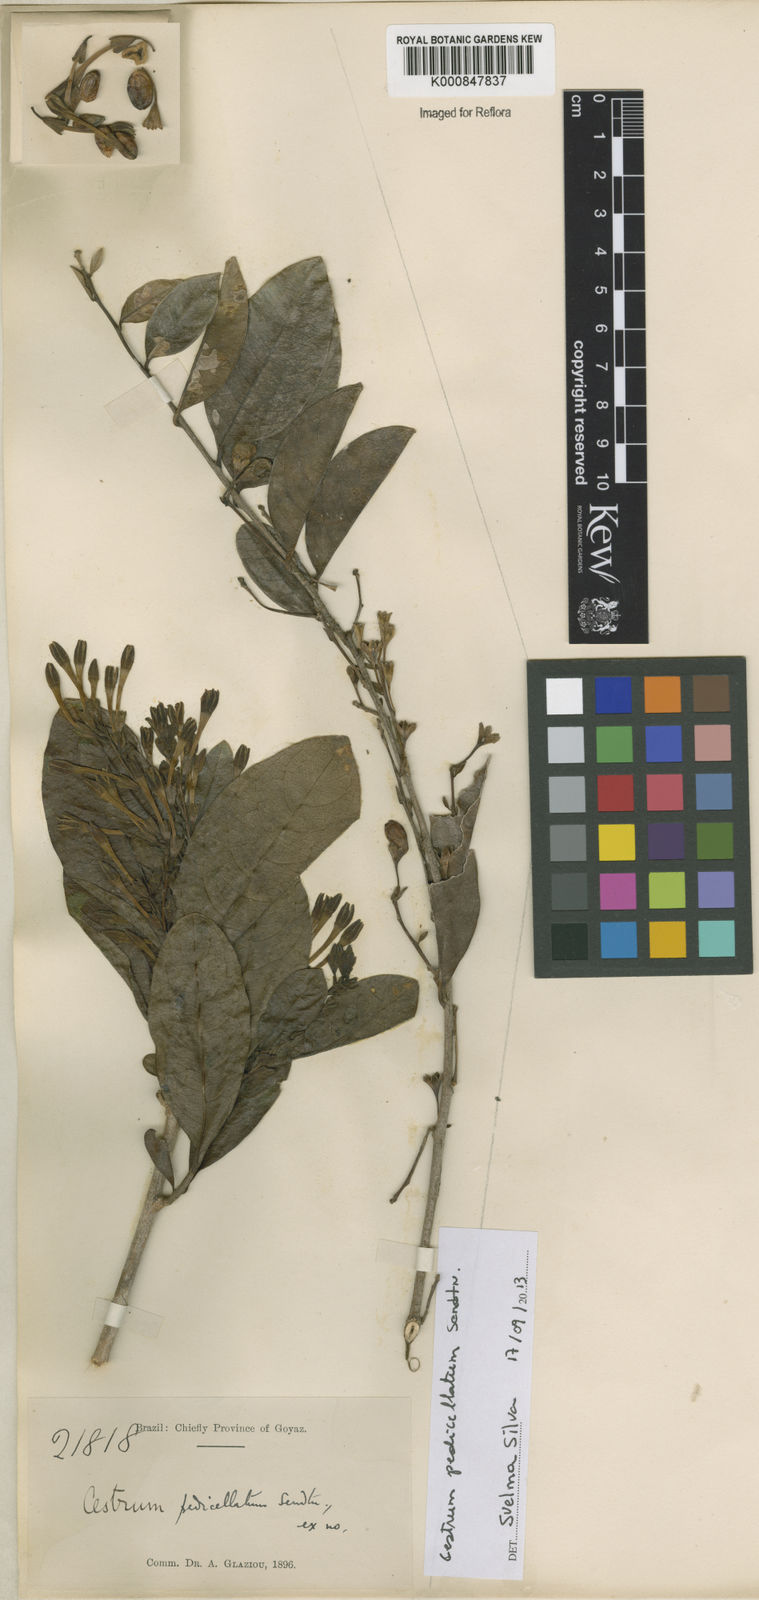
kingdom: Plantae
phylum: Tracheophyta
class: Magnoliopsida
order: Solanales
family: Solanaceae
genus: Cestrum
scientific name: Cestrum pedicellatum
